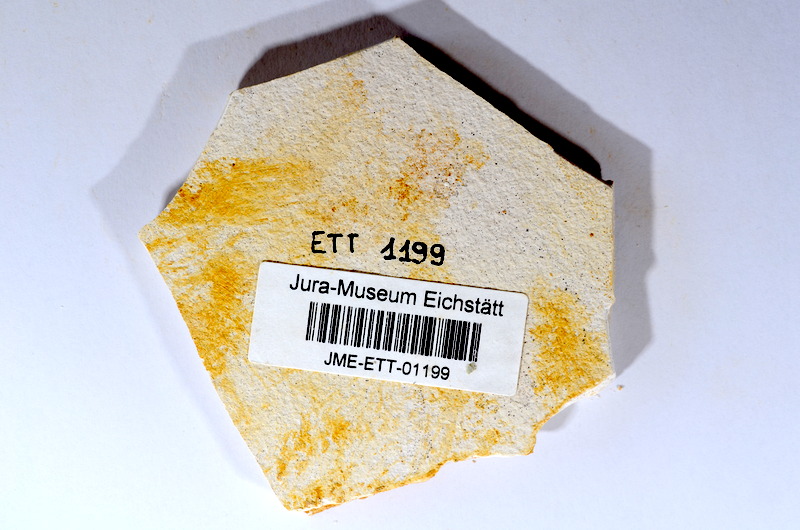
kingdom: Animalia
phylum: Chordata
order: Salmoniformes
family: Orthogonikleithridae
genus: Orthogonikleithrus
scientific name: Orthogonikleithrus hoelli
